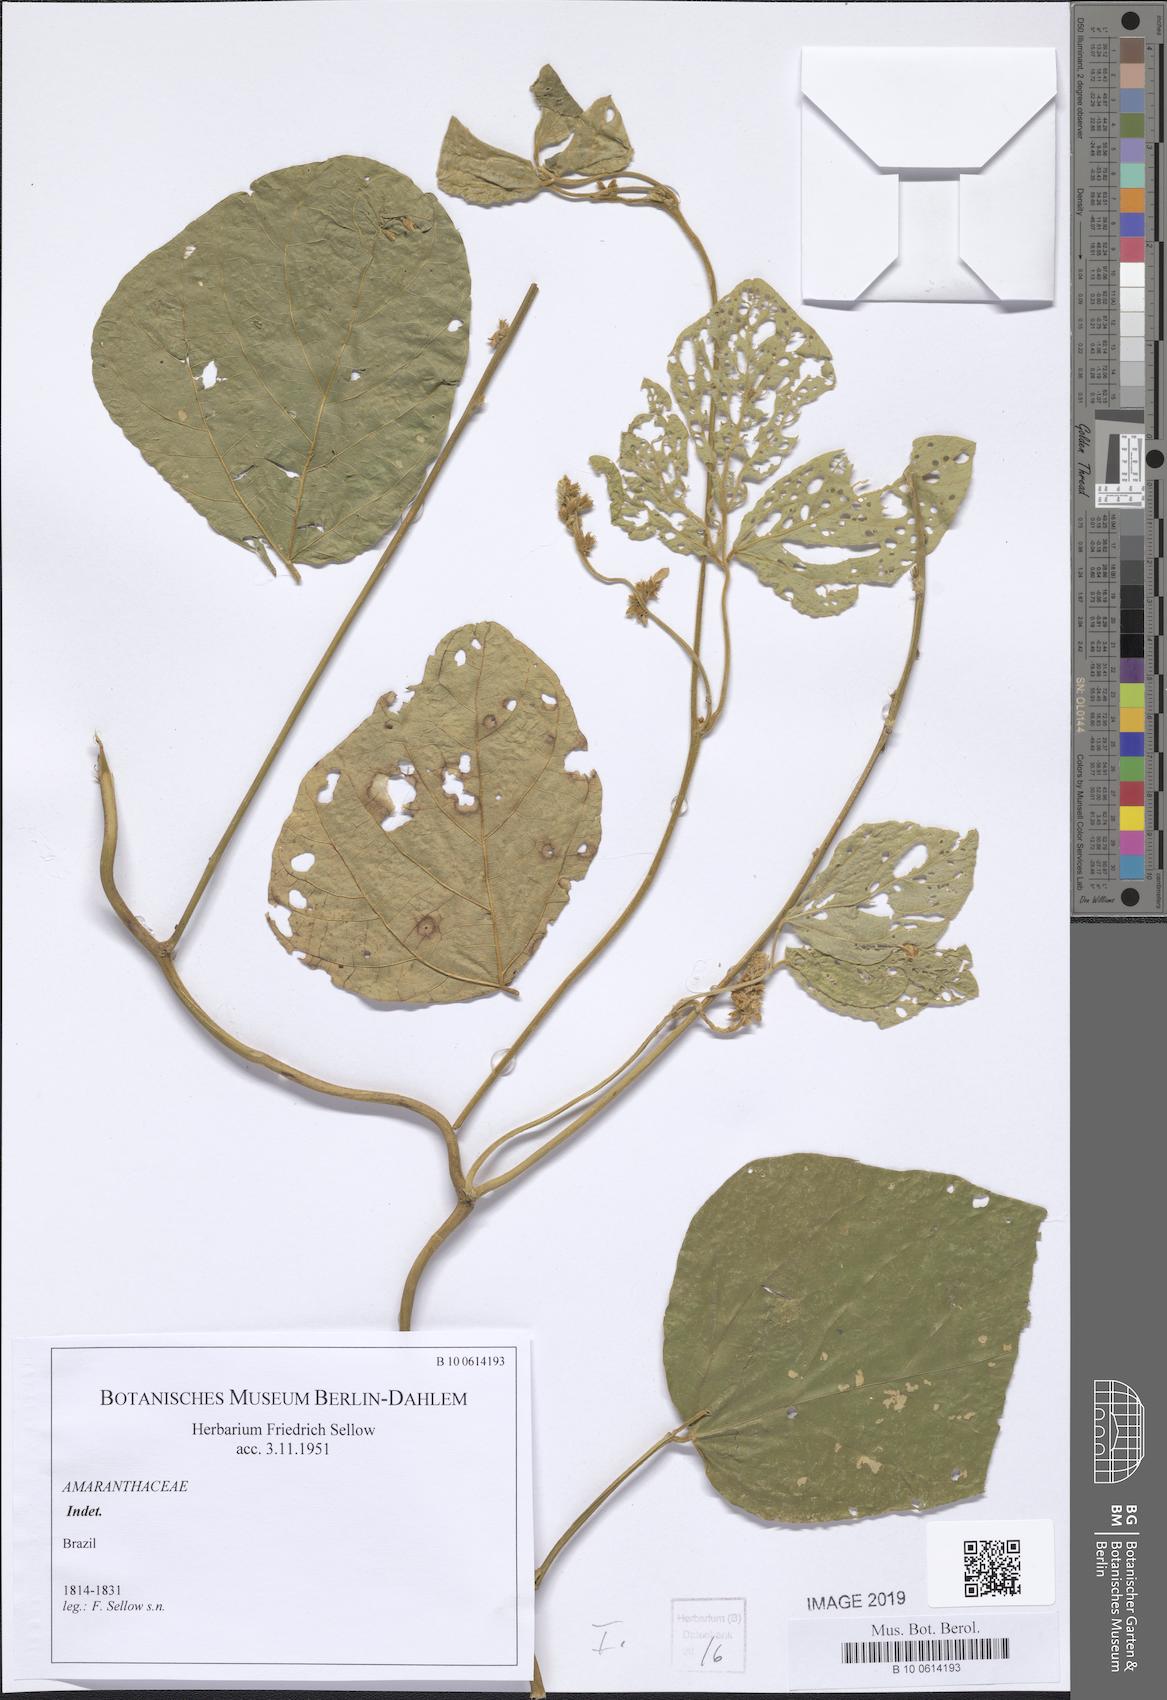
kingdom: Plantae
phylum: Tracheophyta
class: Magnoliopsida
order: Caryophyllales
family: Amaranthaceae
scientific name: Amaranthaceae
